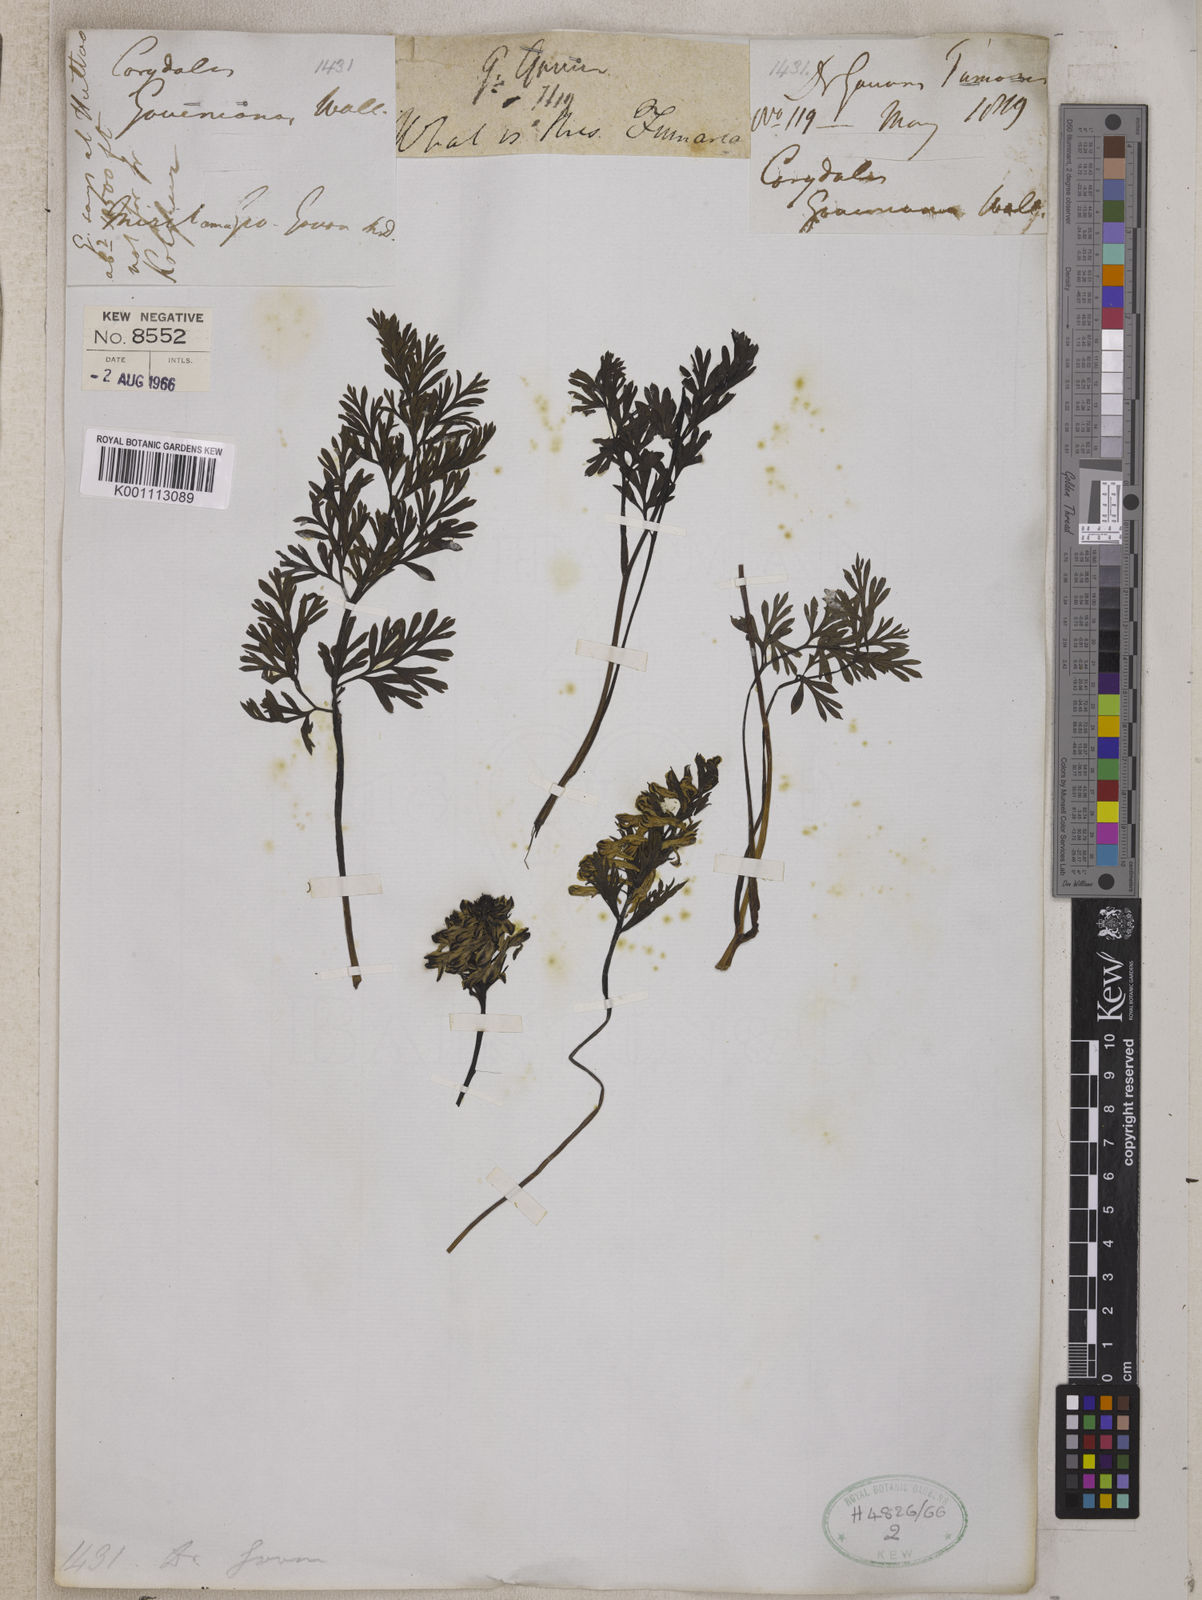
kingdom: Plantae
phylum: Tracheophyta
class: Magnoliopsida
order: Ranunculales
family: Papaveraceae
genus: Corydalis
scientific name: Corydalis govaniana
